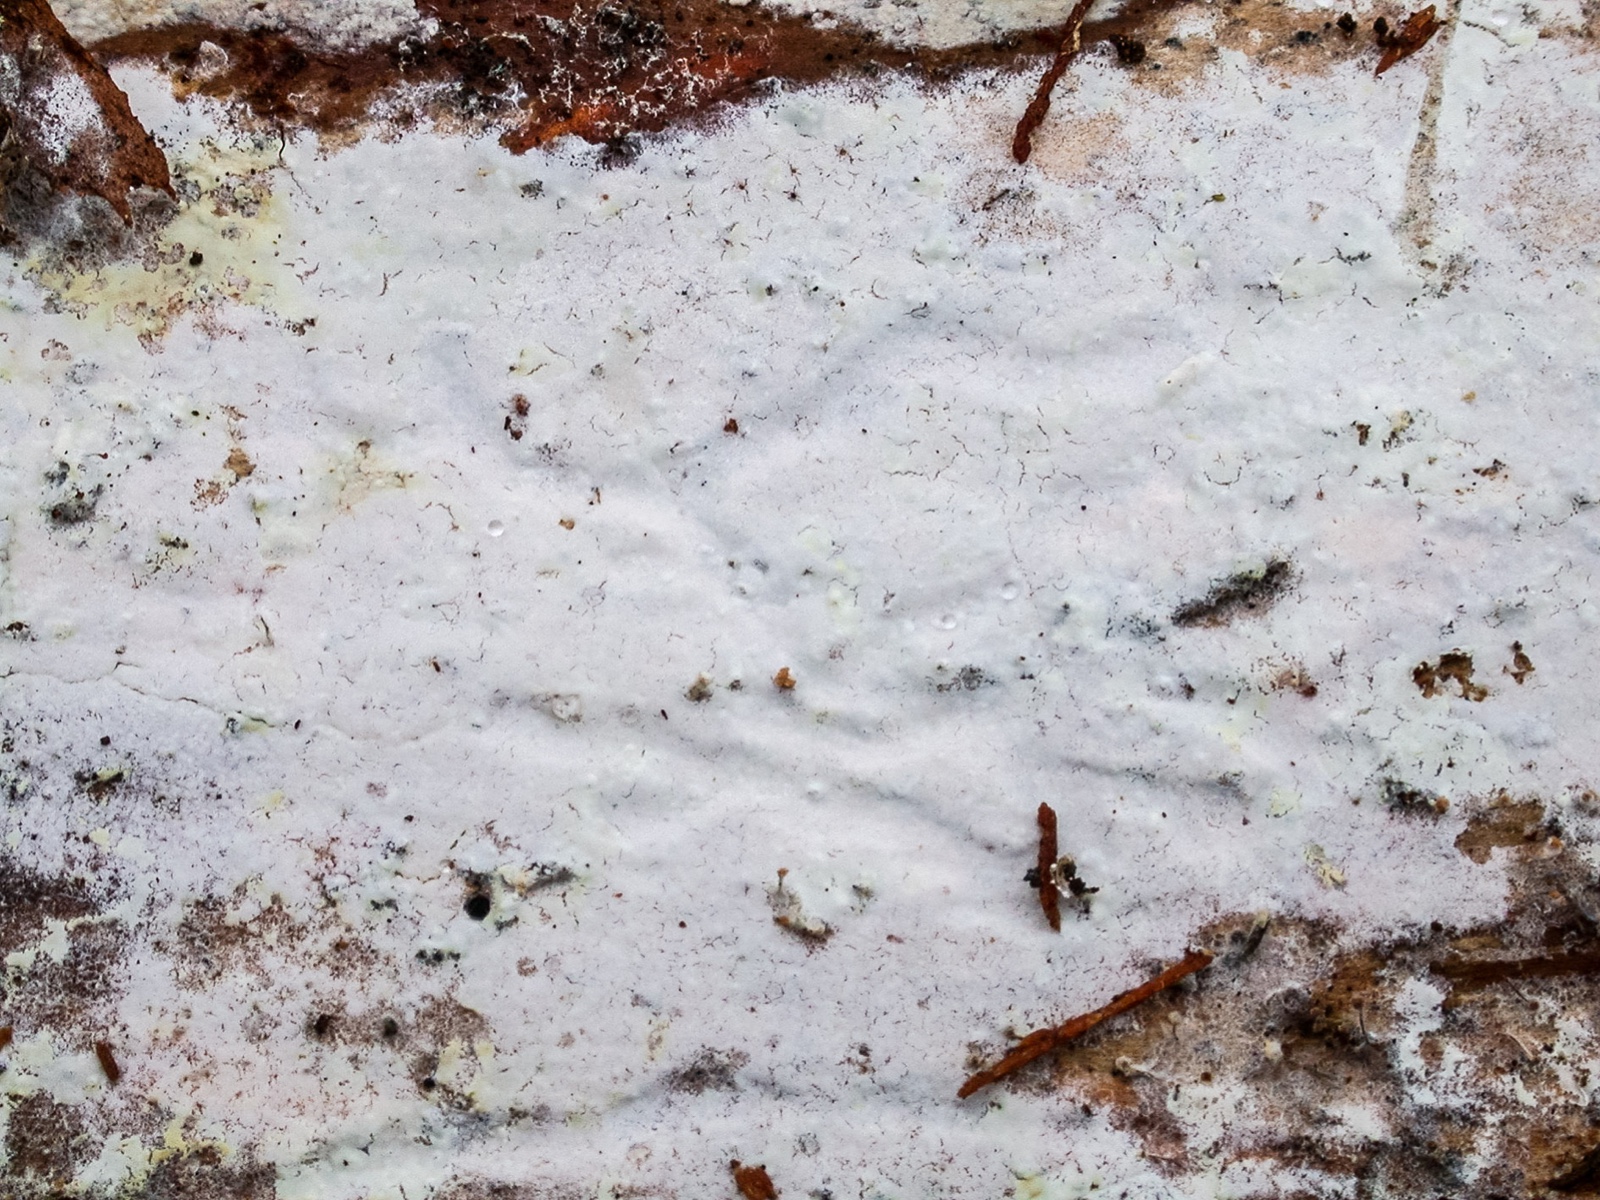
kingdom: Fungi
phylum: Basidiomycota
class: Agaricomycetes
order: Amylocorticiales
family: Amylocorticiaceae
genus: Ceraceomyces
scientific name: Ceraceomyces eludens
